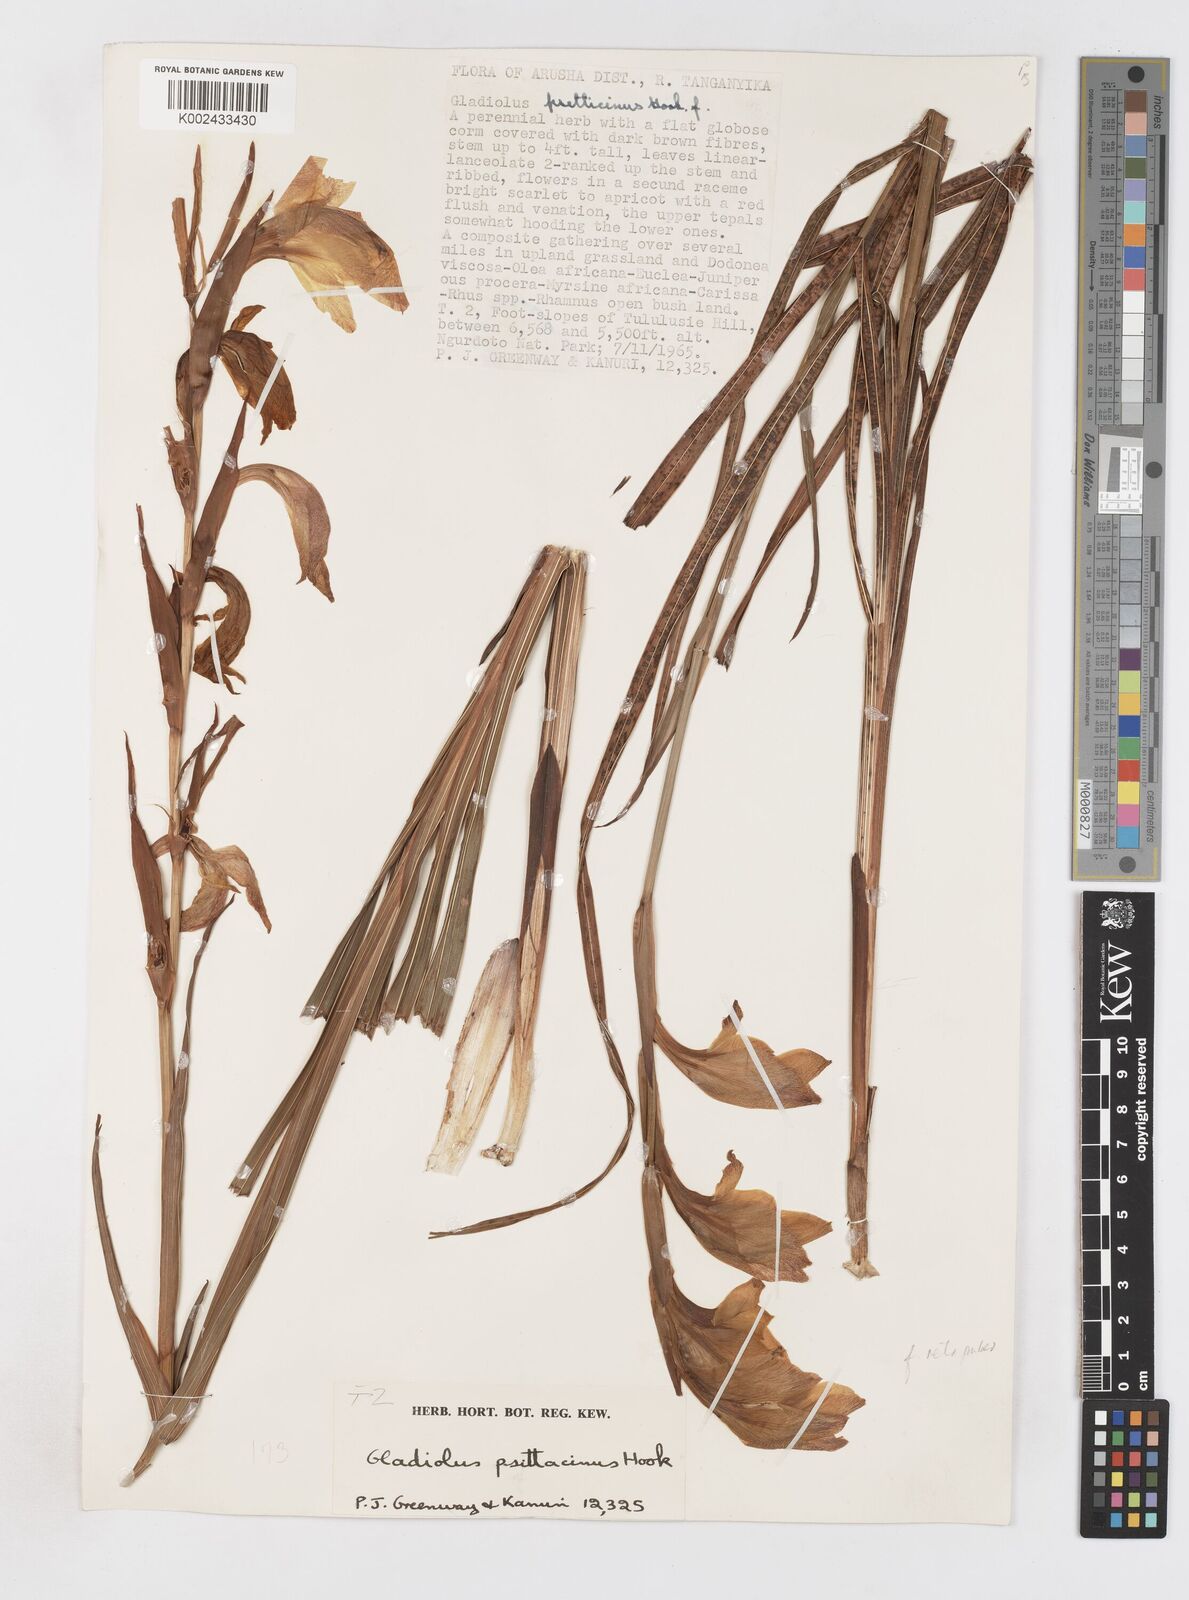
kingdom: Plantae
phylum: Tracheophyta
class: Liliopsida
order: Asparagales
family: Iridaceae
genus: Gladiolus
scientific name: Gladiolus dalenii
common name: Cornflag
